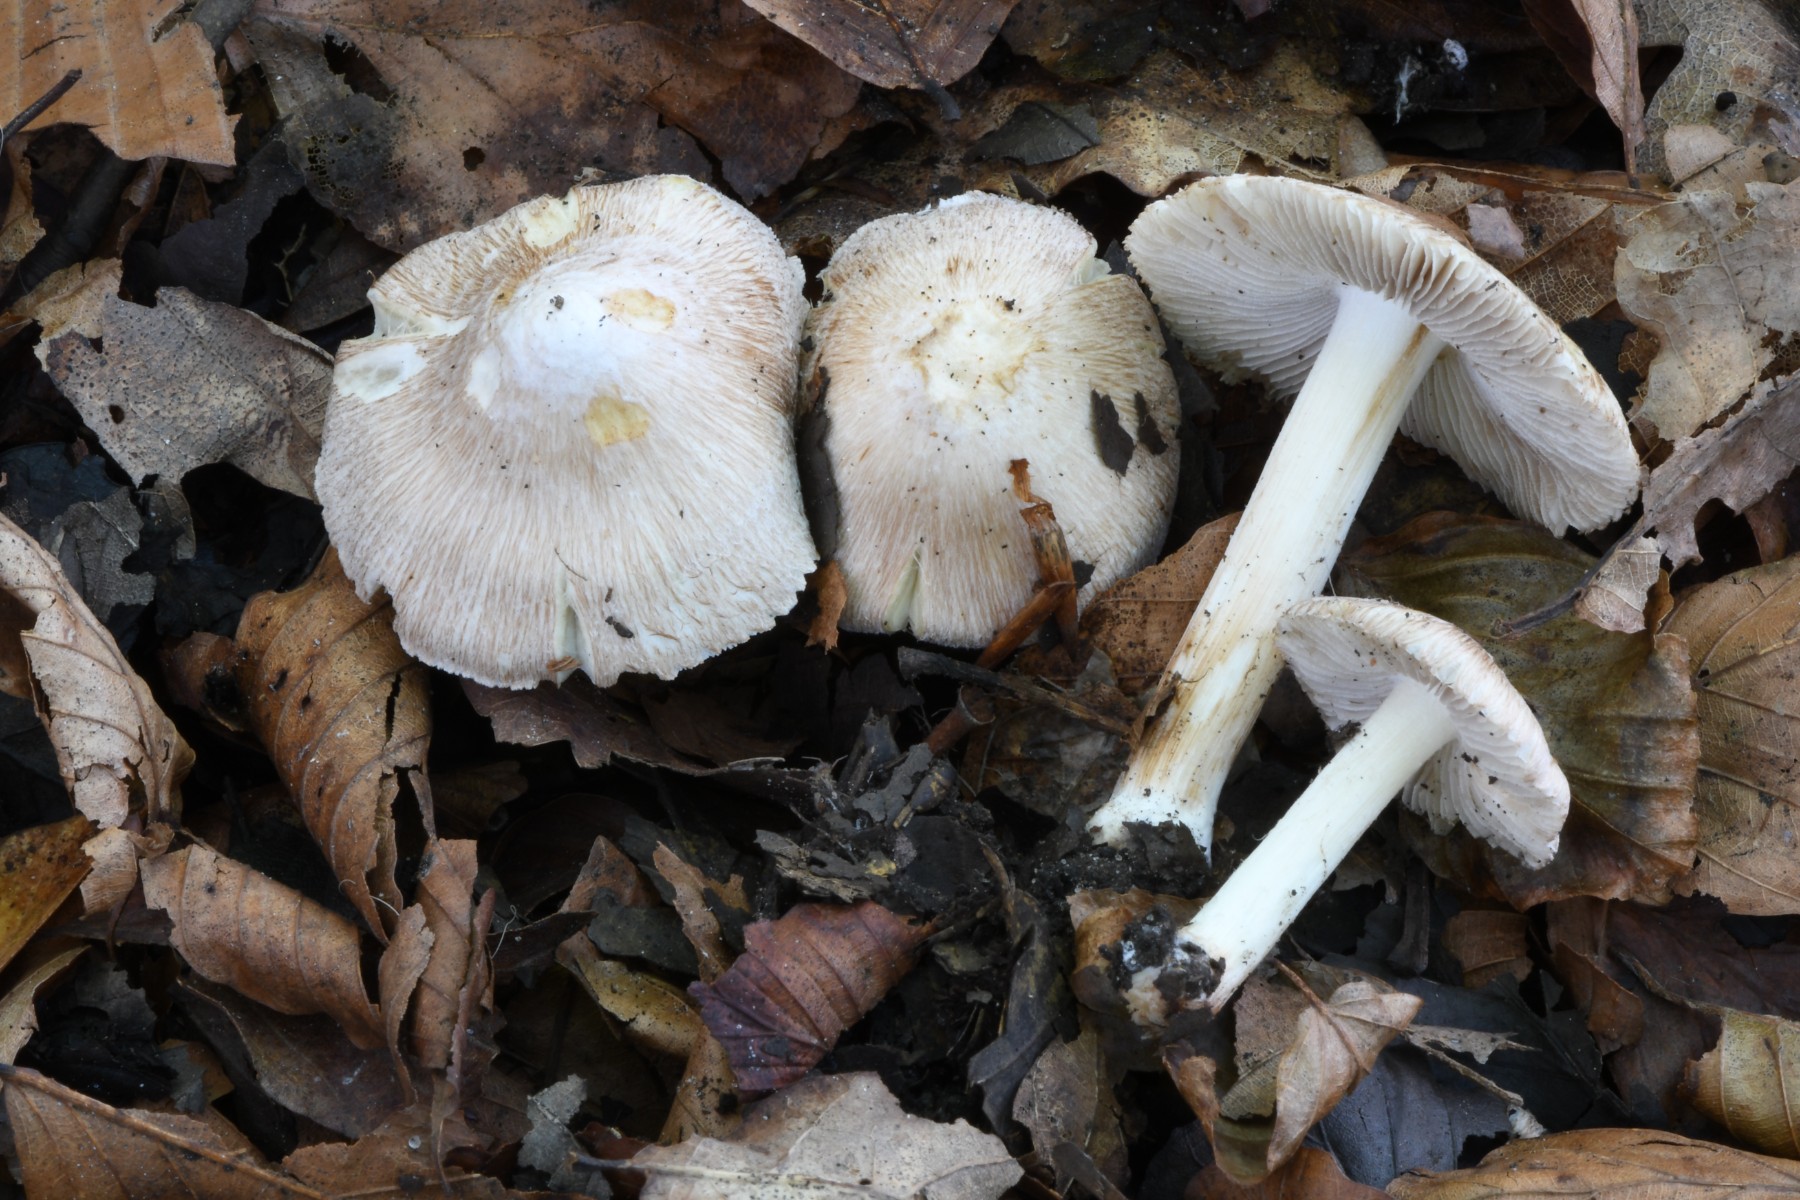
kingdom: Fungi
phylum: Basidiomycota
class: Agaricomycetes
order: Agaricales
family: Inocybaceae
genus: Inosperma
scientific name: Inosperma maculatum
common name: plettet trævlhat
